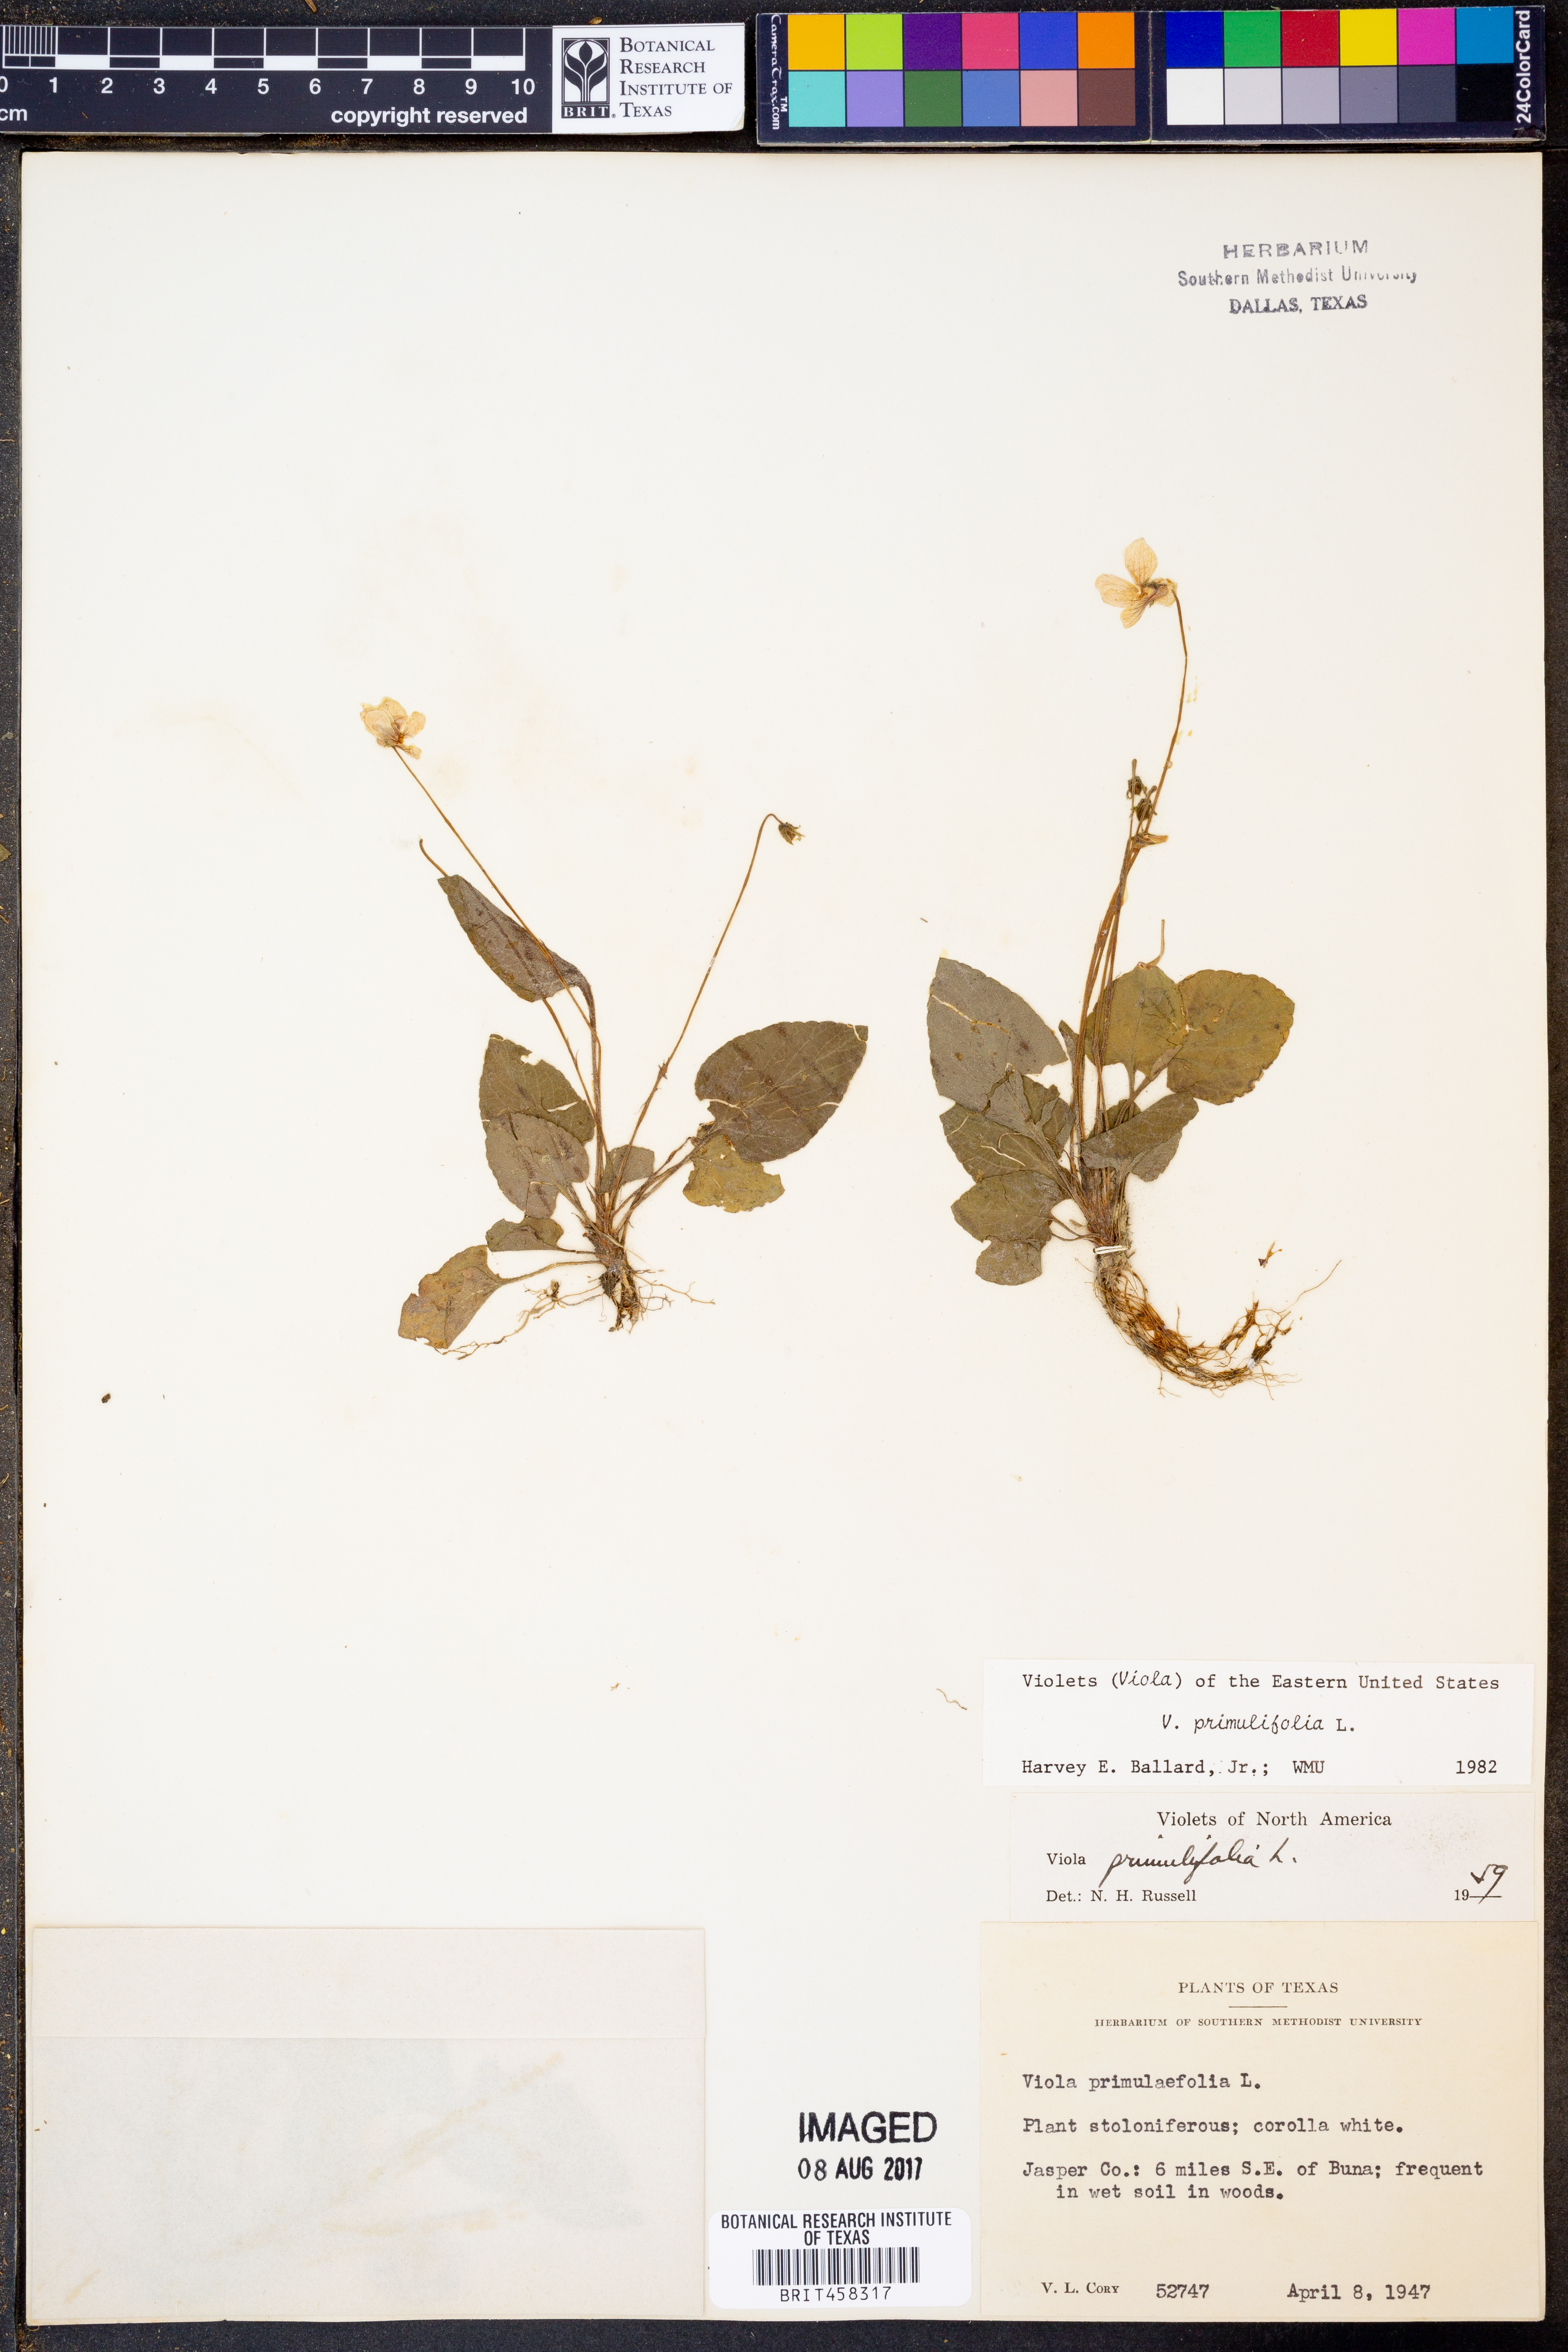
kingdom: Plantae
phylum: Tracheophyta
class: Magnoliopsida
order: Malpighiales
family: Violaceae
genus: Viola
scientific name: Viola primulifolia
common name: Primrose-leaf violet
